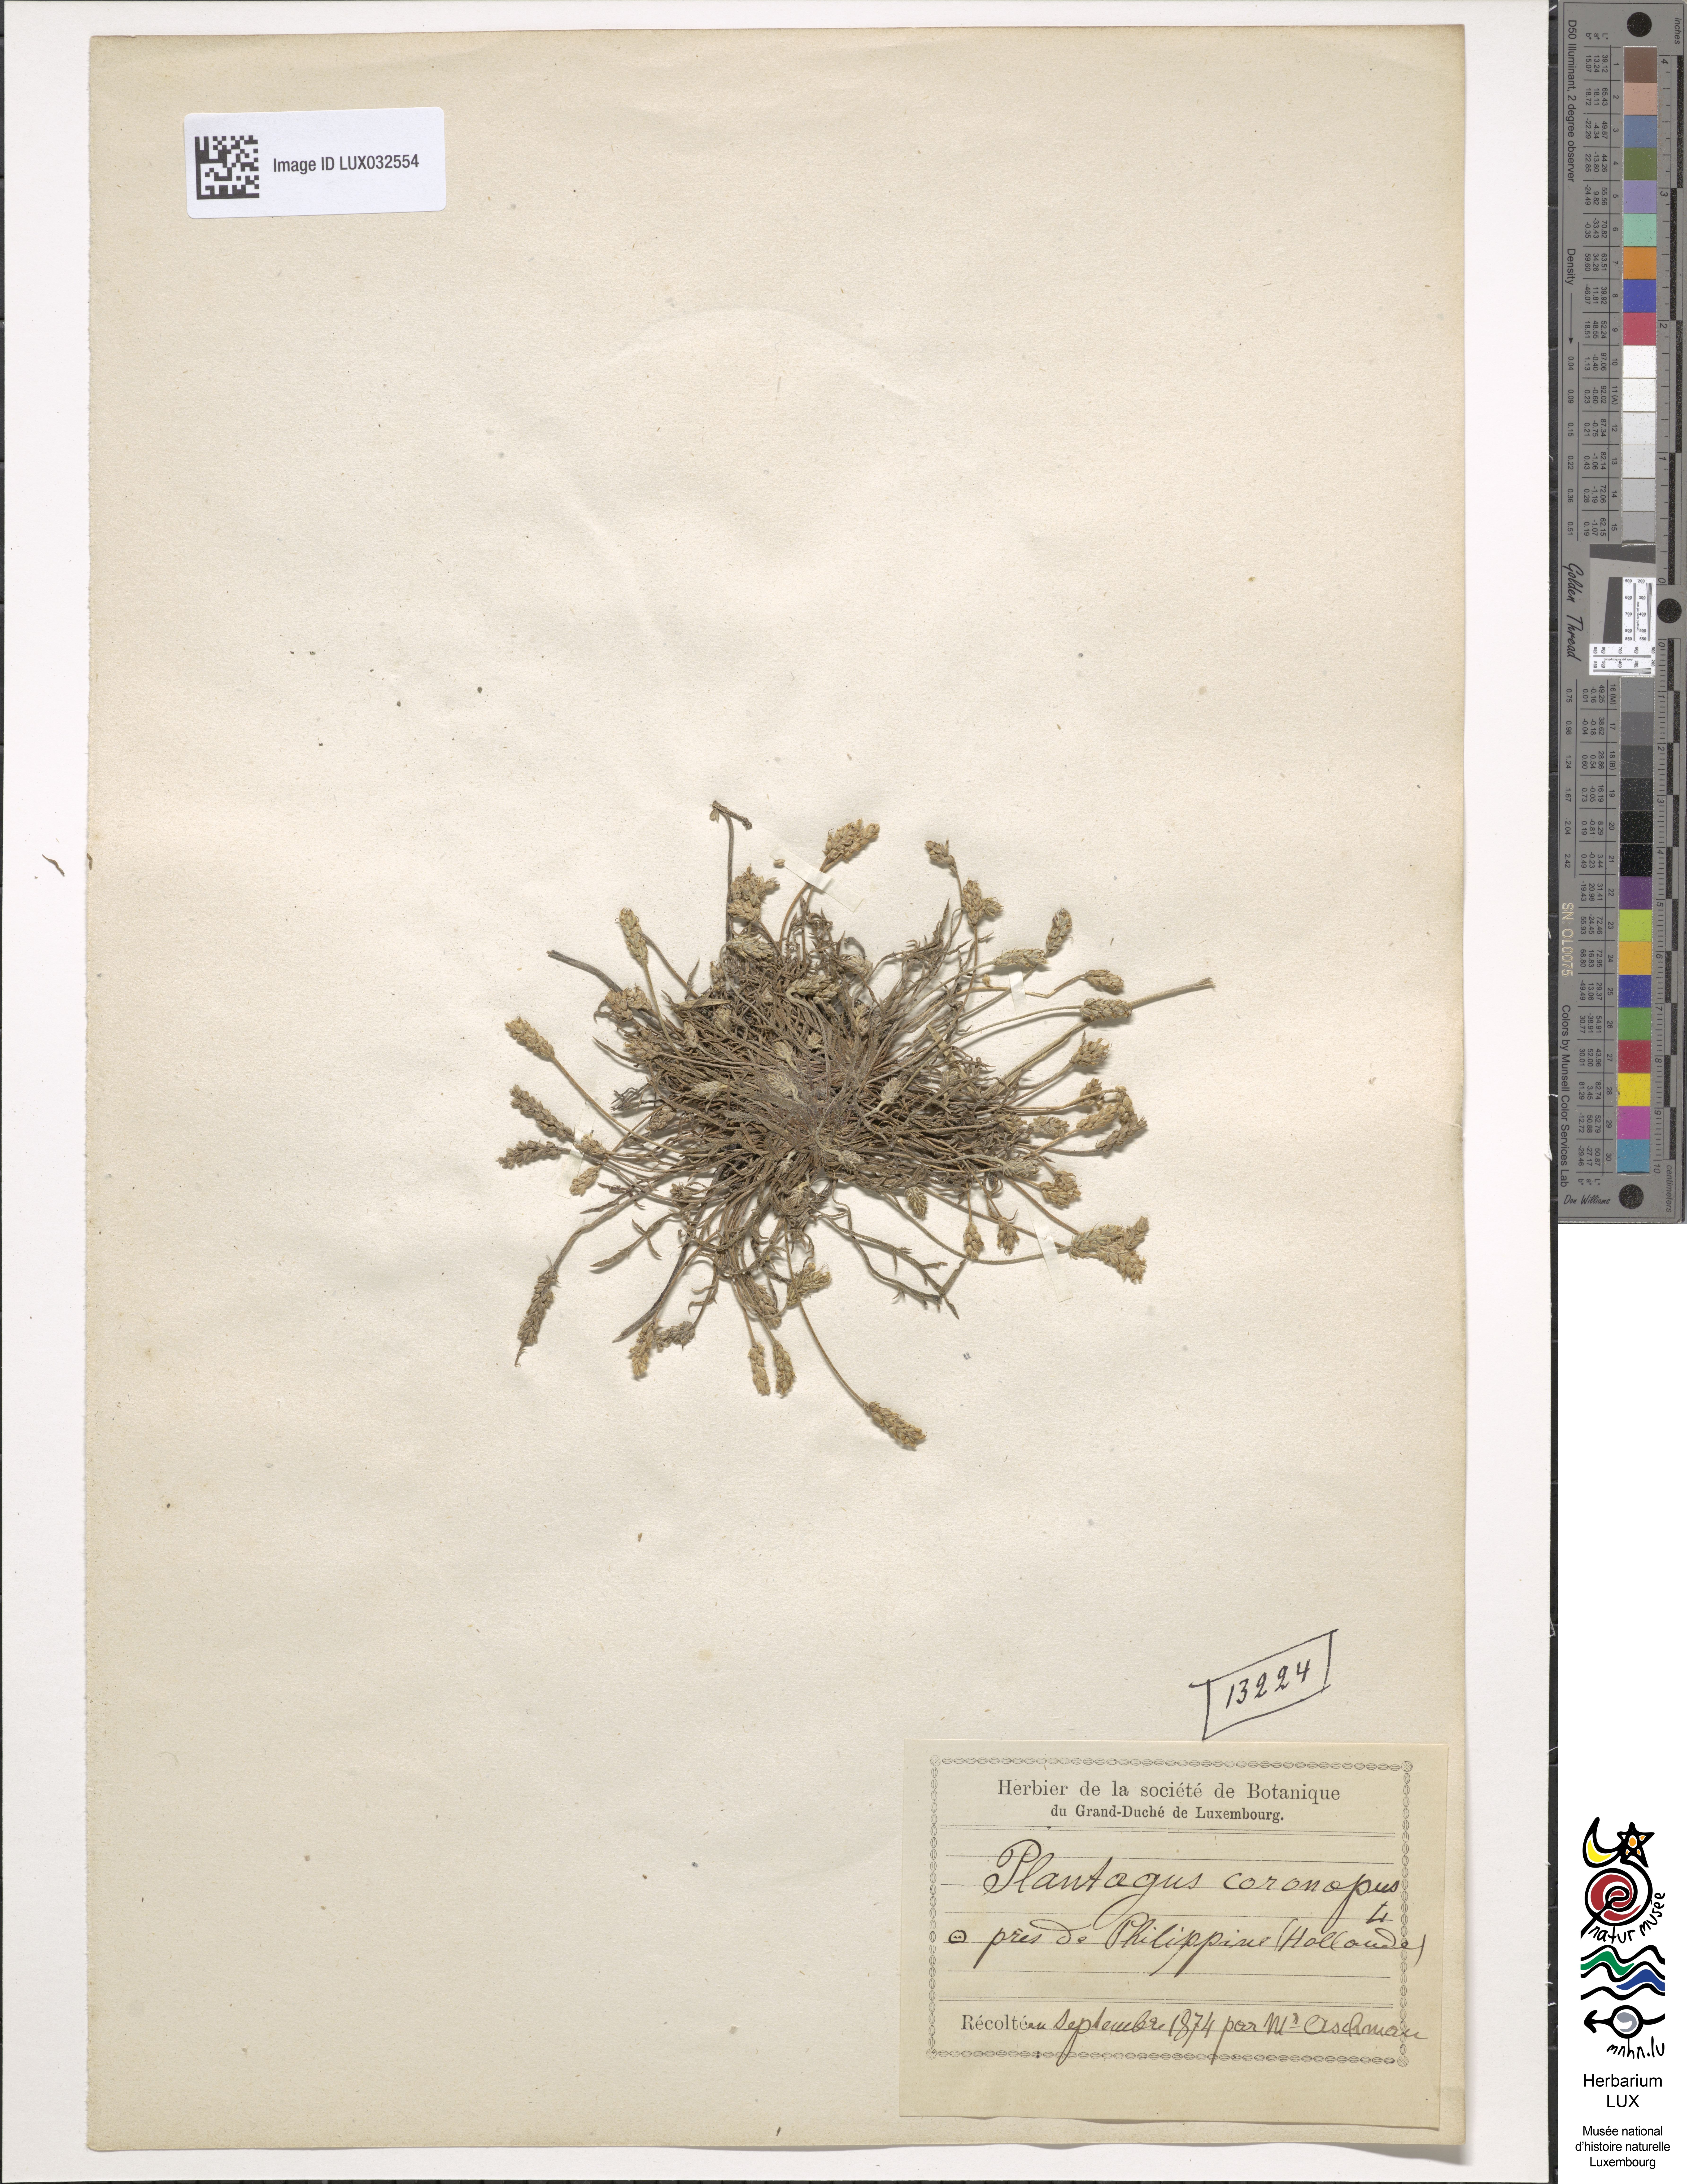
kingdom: Plantae
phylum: Tracheophyta
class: Magnoliopsida
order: Lamiales
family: Plantaginaceae
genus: Plantago
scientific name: Plantago coronopus
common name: Buck's-horn plantain
